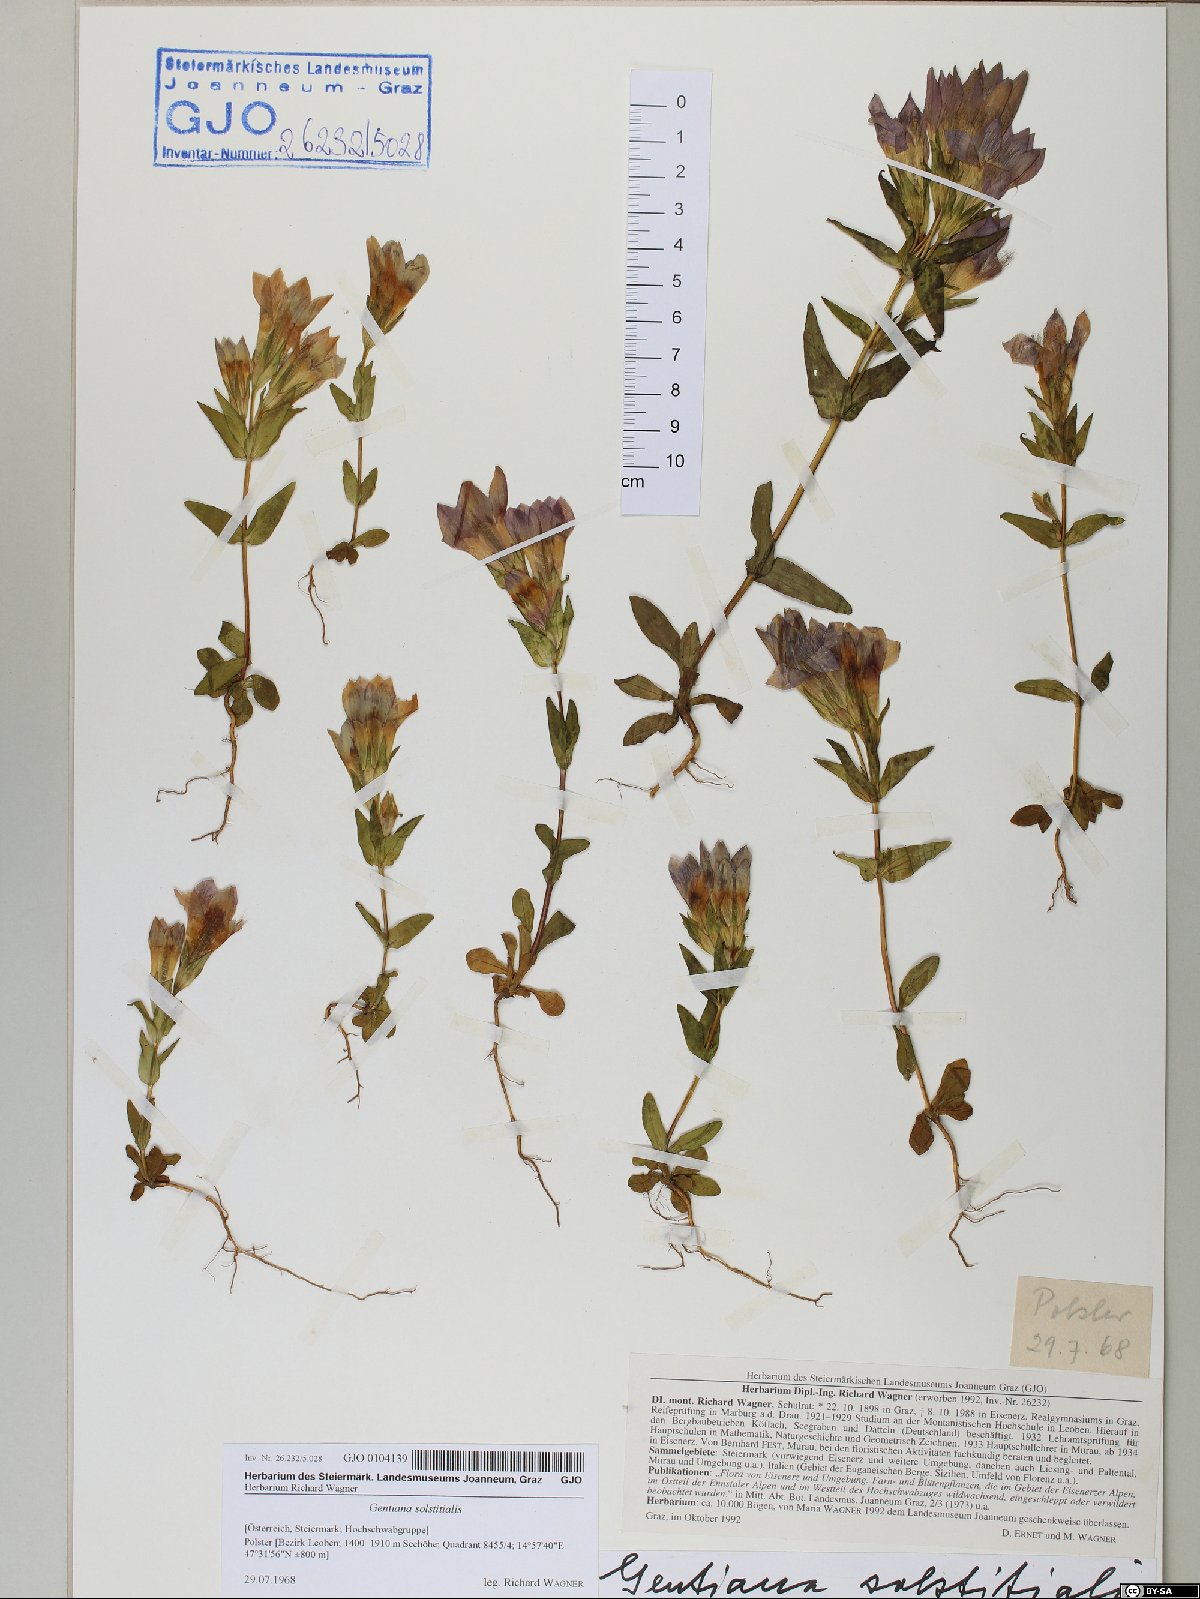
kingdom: Plantae
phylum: Tracheophyta
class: Magnoliopsida
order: Gentianales
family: Gentianaceae
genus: Gentianella
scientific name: Gentianella germanica
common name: Chiltern-gentian
